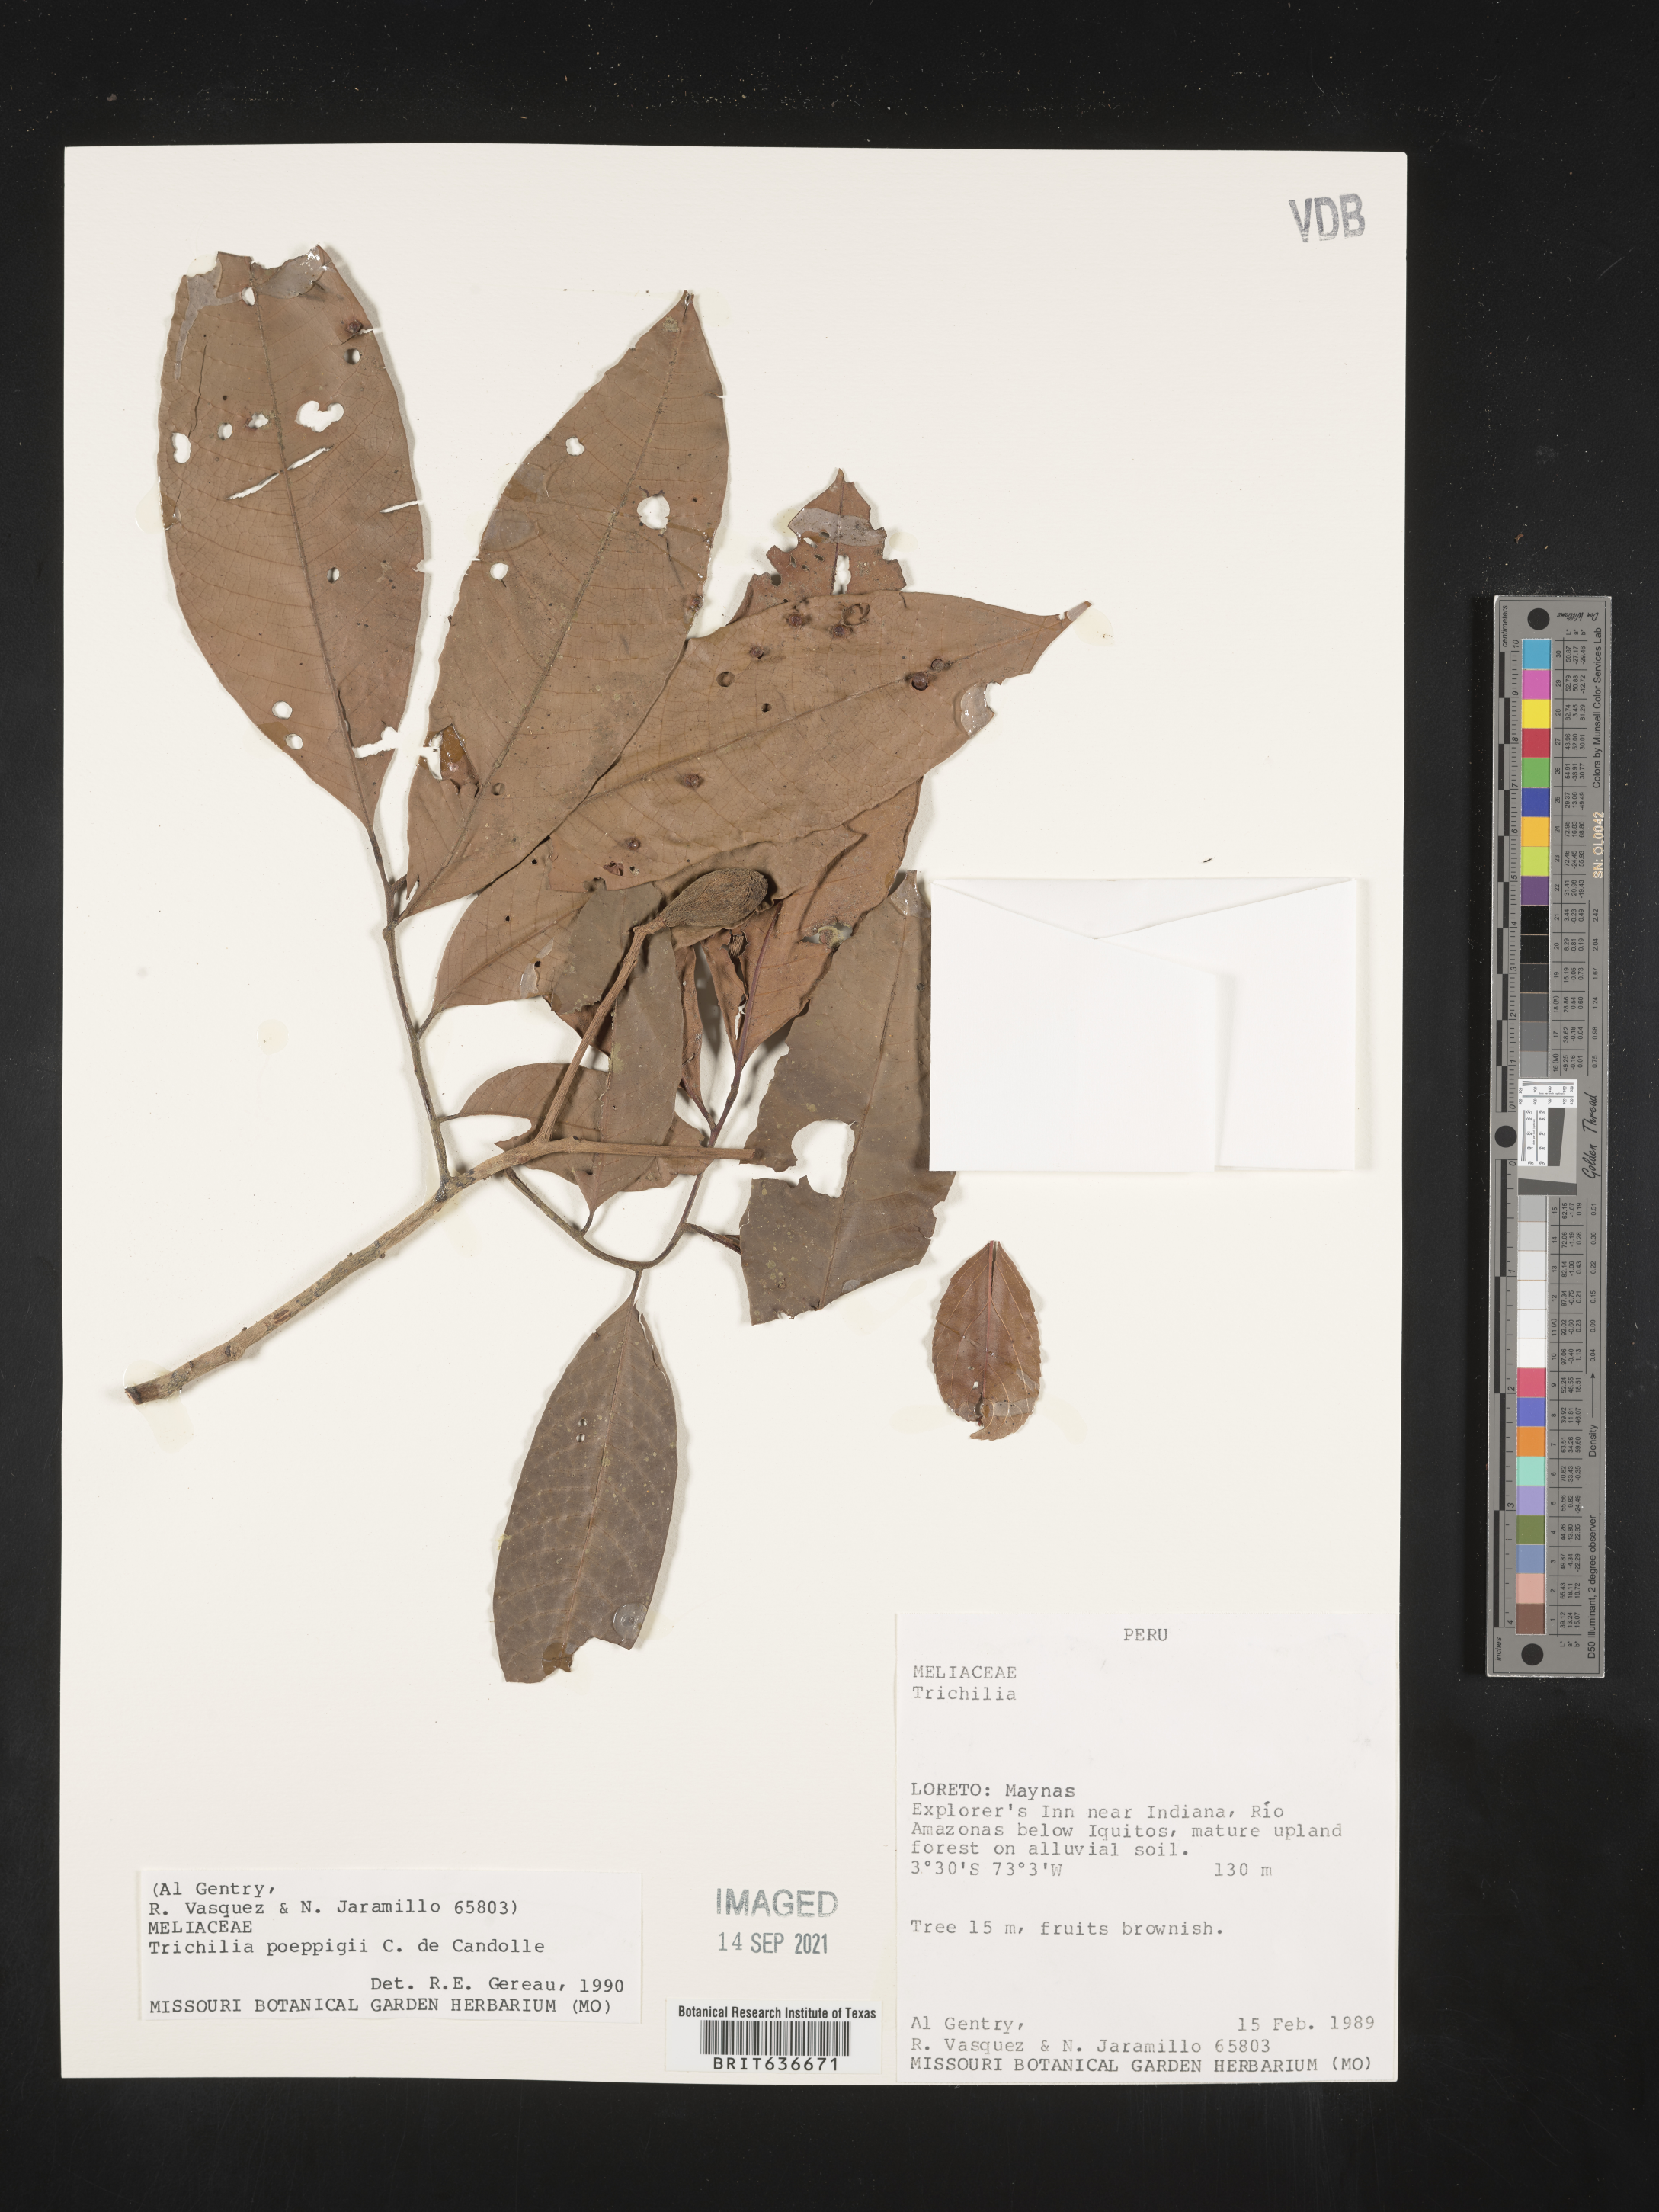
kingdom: Plantae
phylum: Tracheophyta
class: Magnoliopsida
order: Sapindales
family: Meliaceae
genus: Trichilia
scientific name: Trichilia
